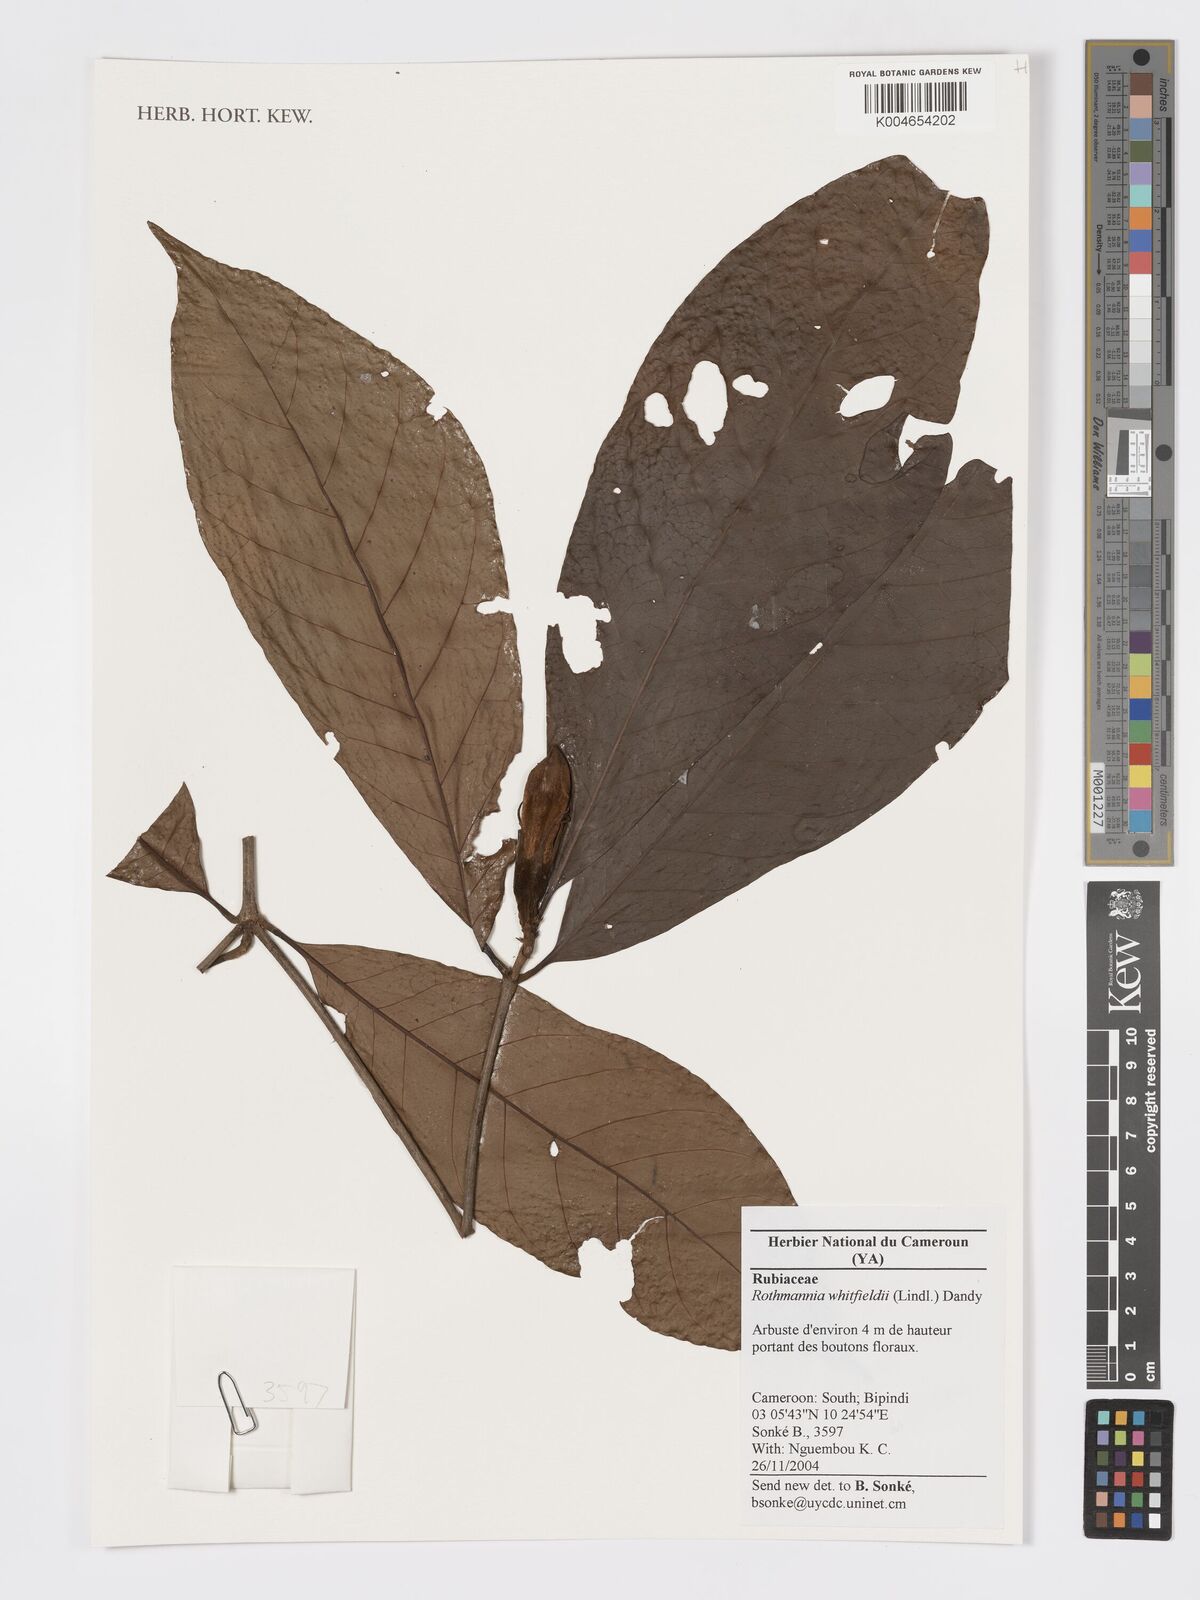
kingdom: Plantae
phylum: Tracheophyta
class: Magnoliopsida
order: Gentianales
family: Rubiaceae
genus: Rothmannia
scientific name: Rothmannia whitfieldii
